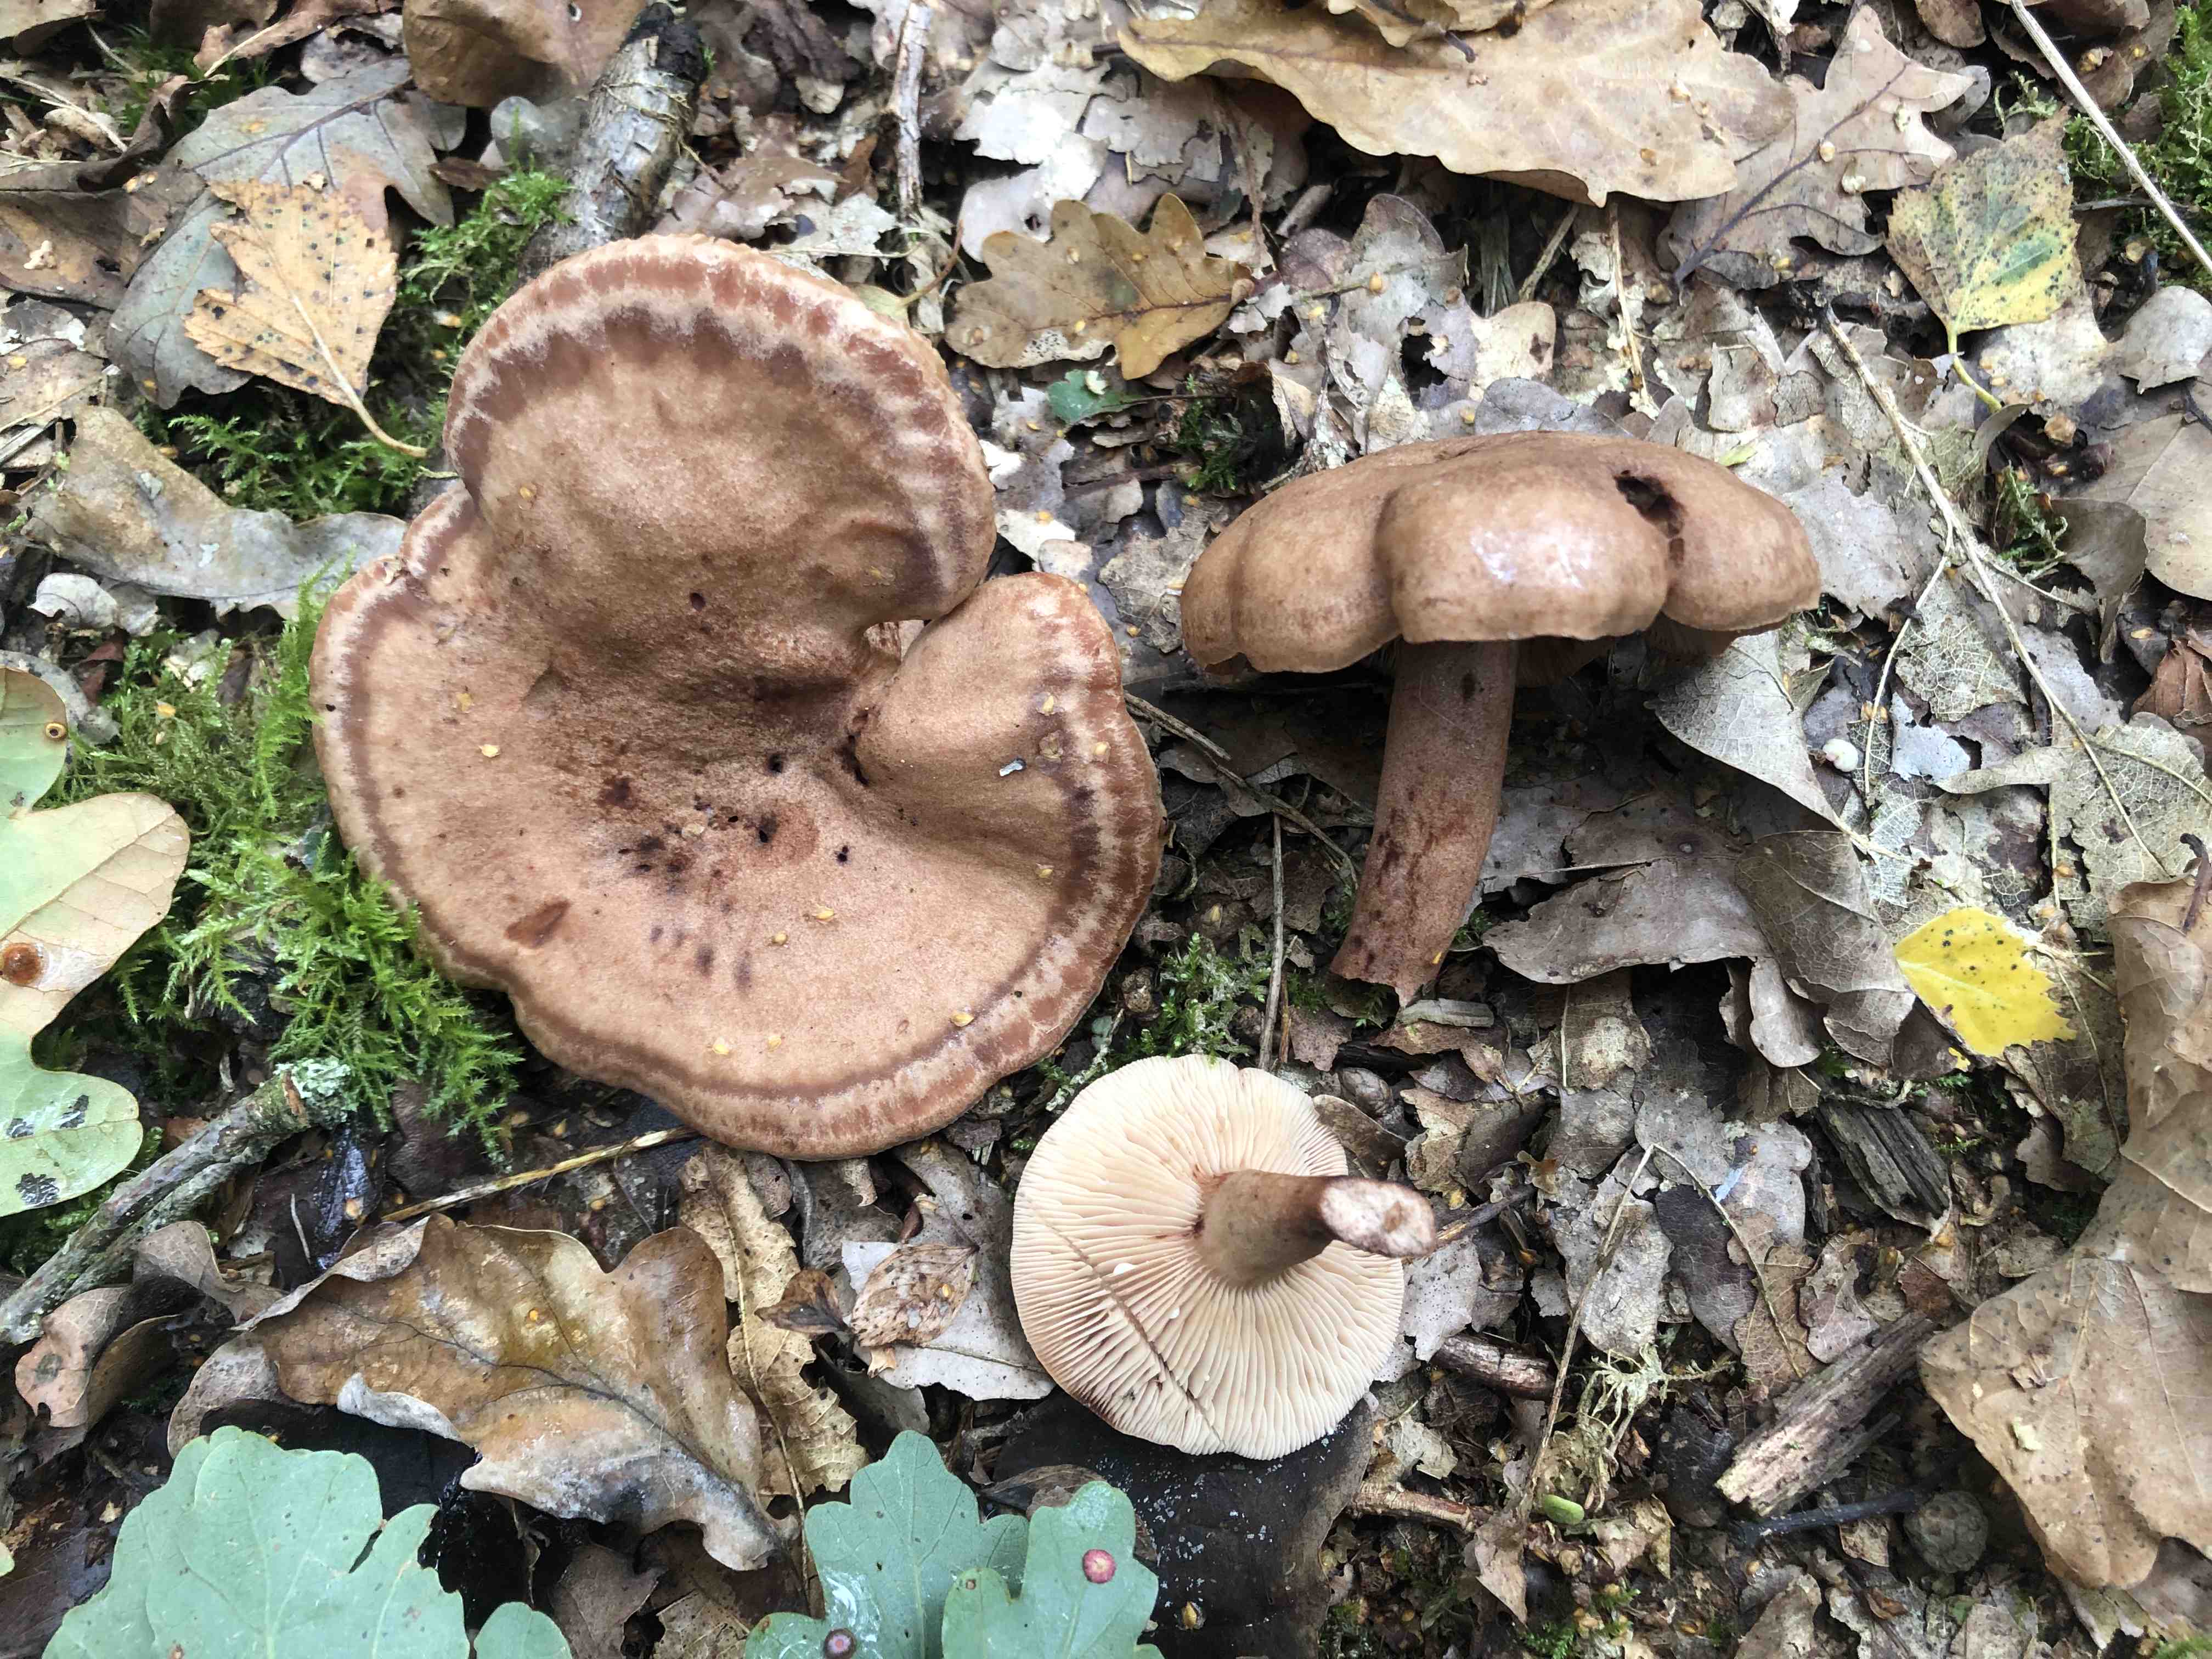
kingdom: Fungi
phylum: Basidiomycota
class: Agaricomycetes
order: Russulales
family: Russulaceae
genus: Lactarius
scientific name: Lactarius quietus
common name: ege-mælkehat
